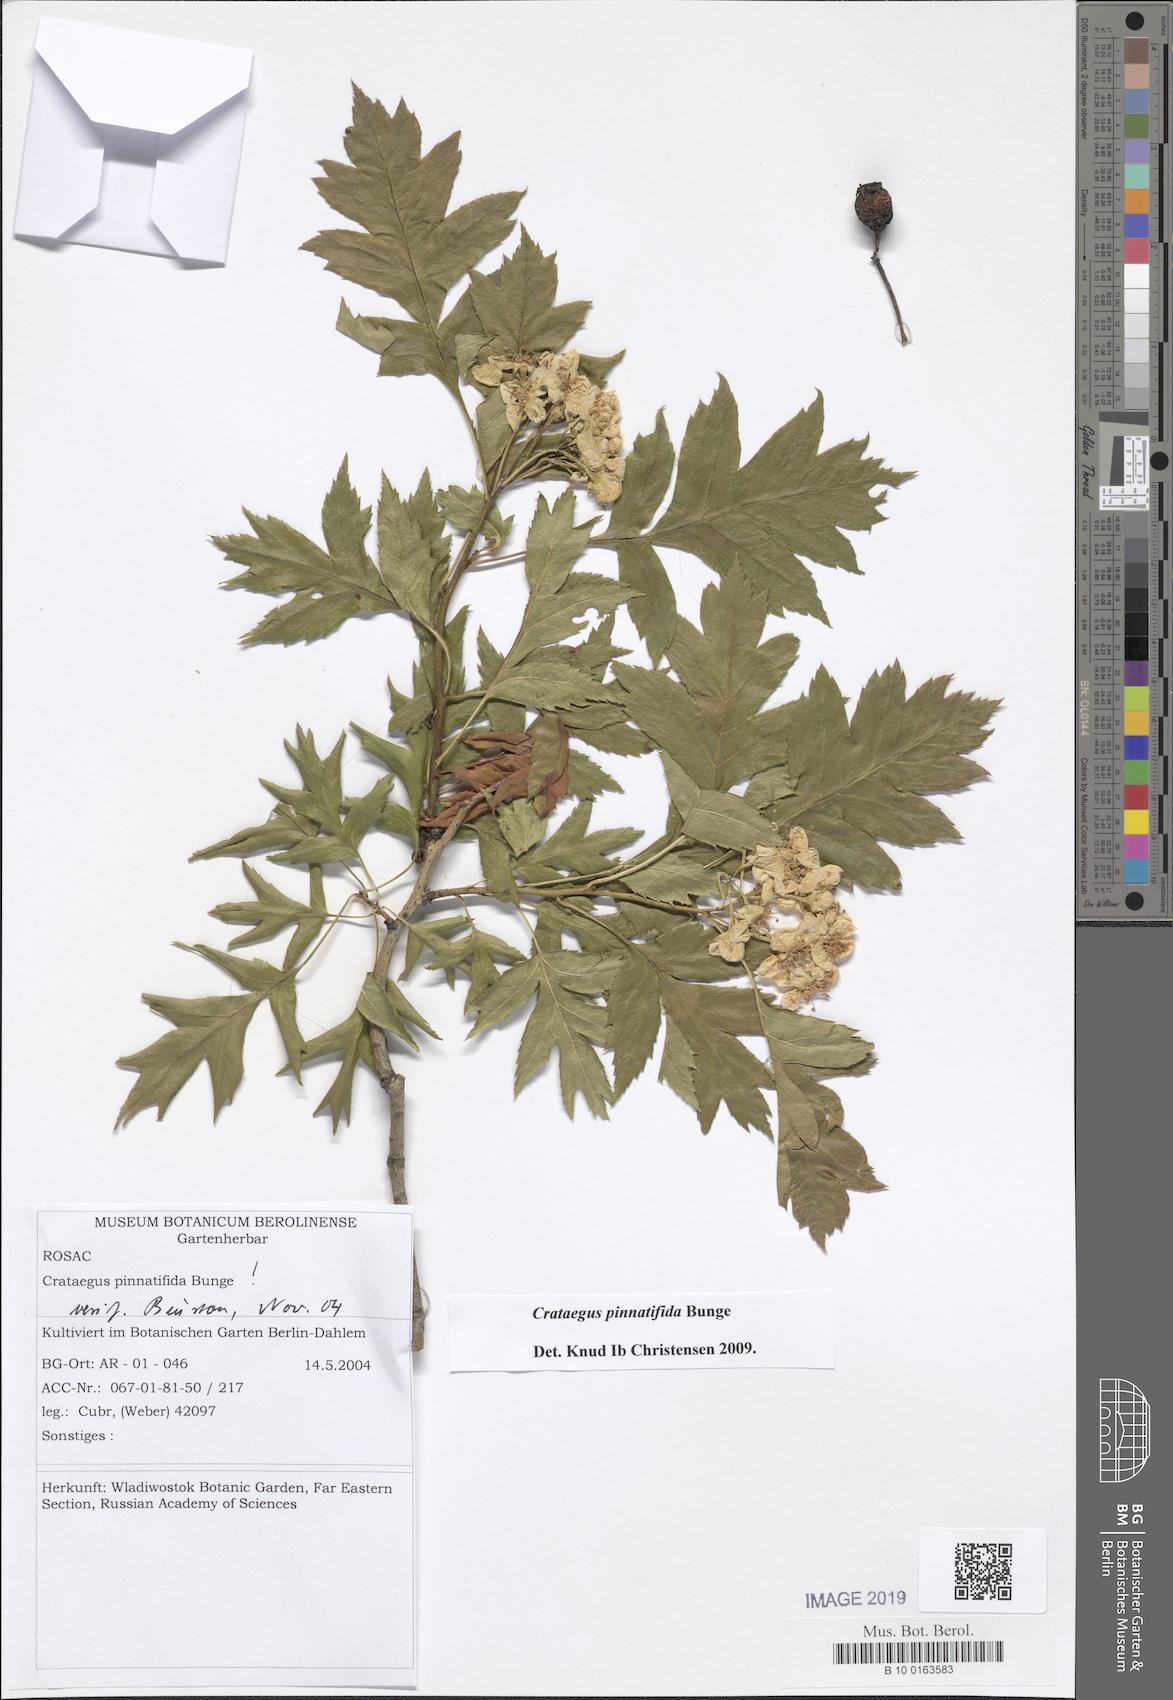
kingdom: Plantae
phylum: Tracheophyta
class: Magnoliopsida
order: Rosales
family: Rosaceae
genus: Crataegus
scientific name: Crataegus pinnatifida
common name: Chinese haw
